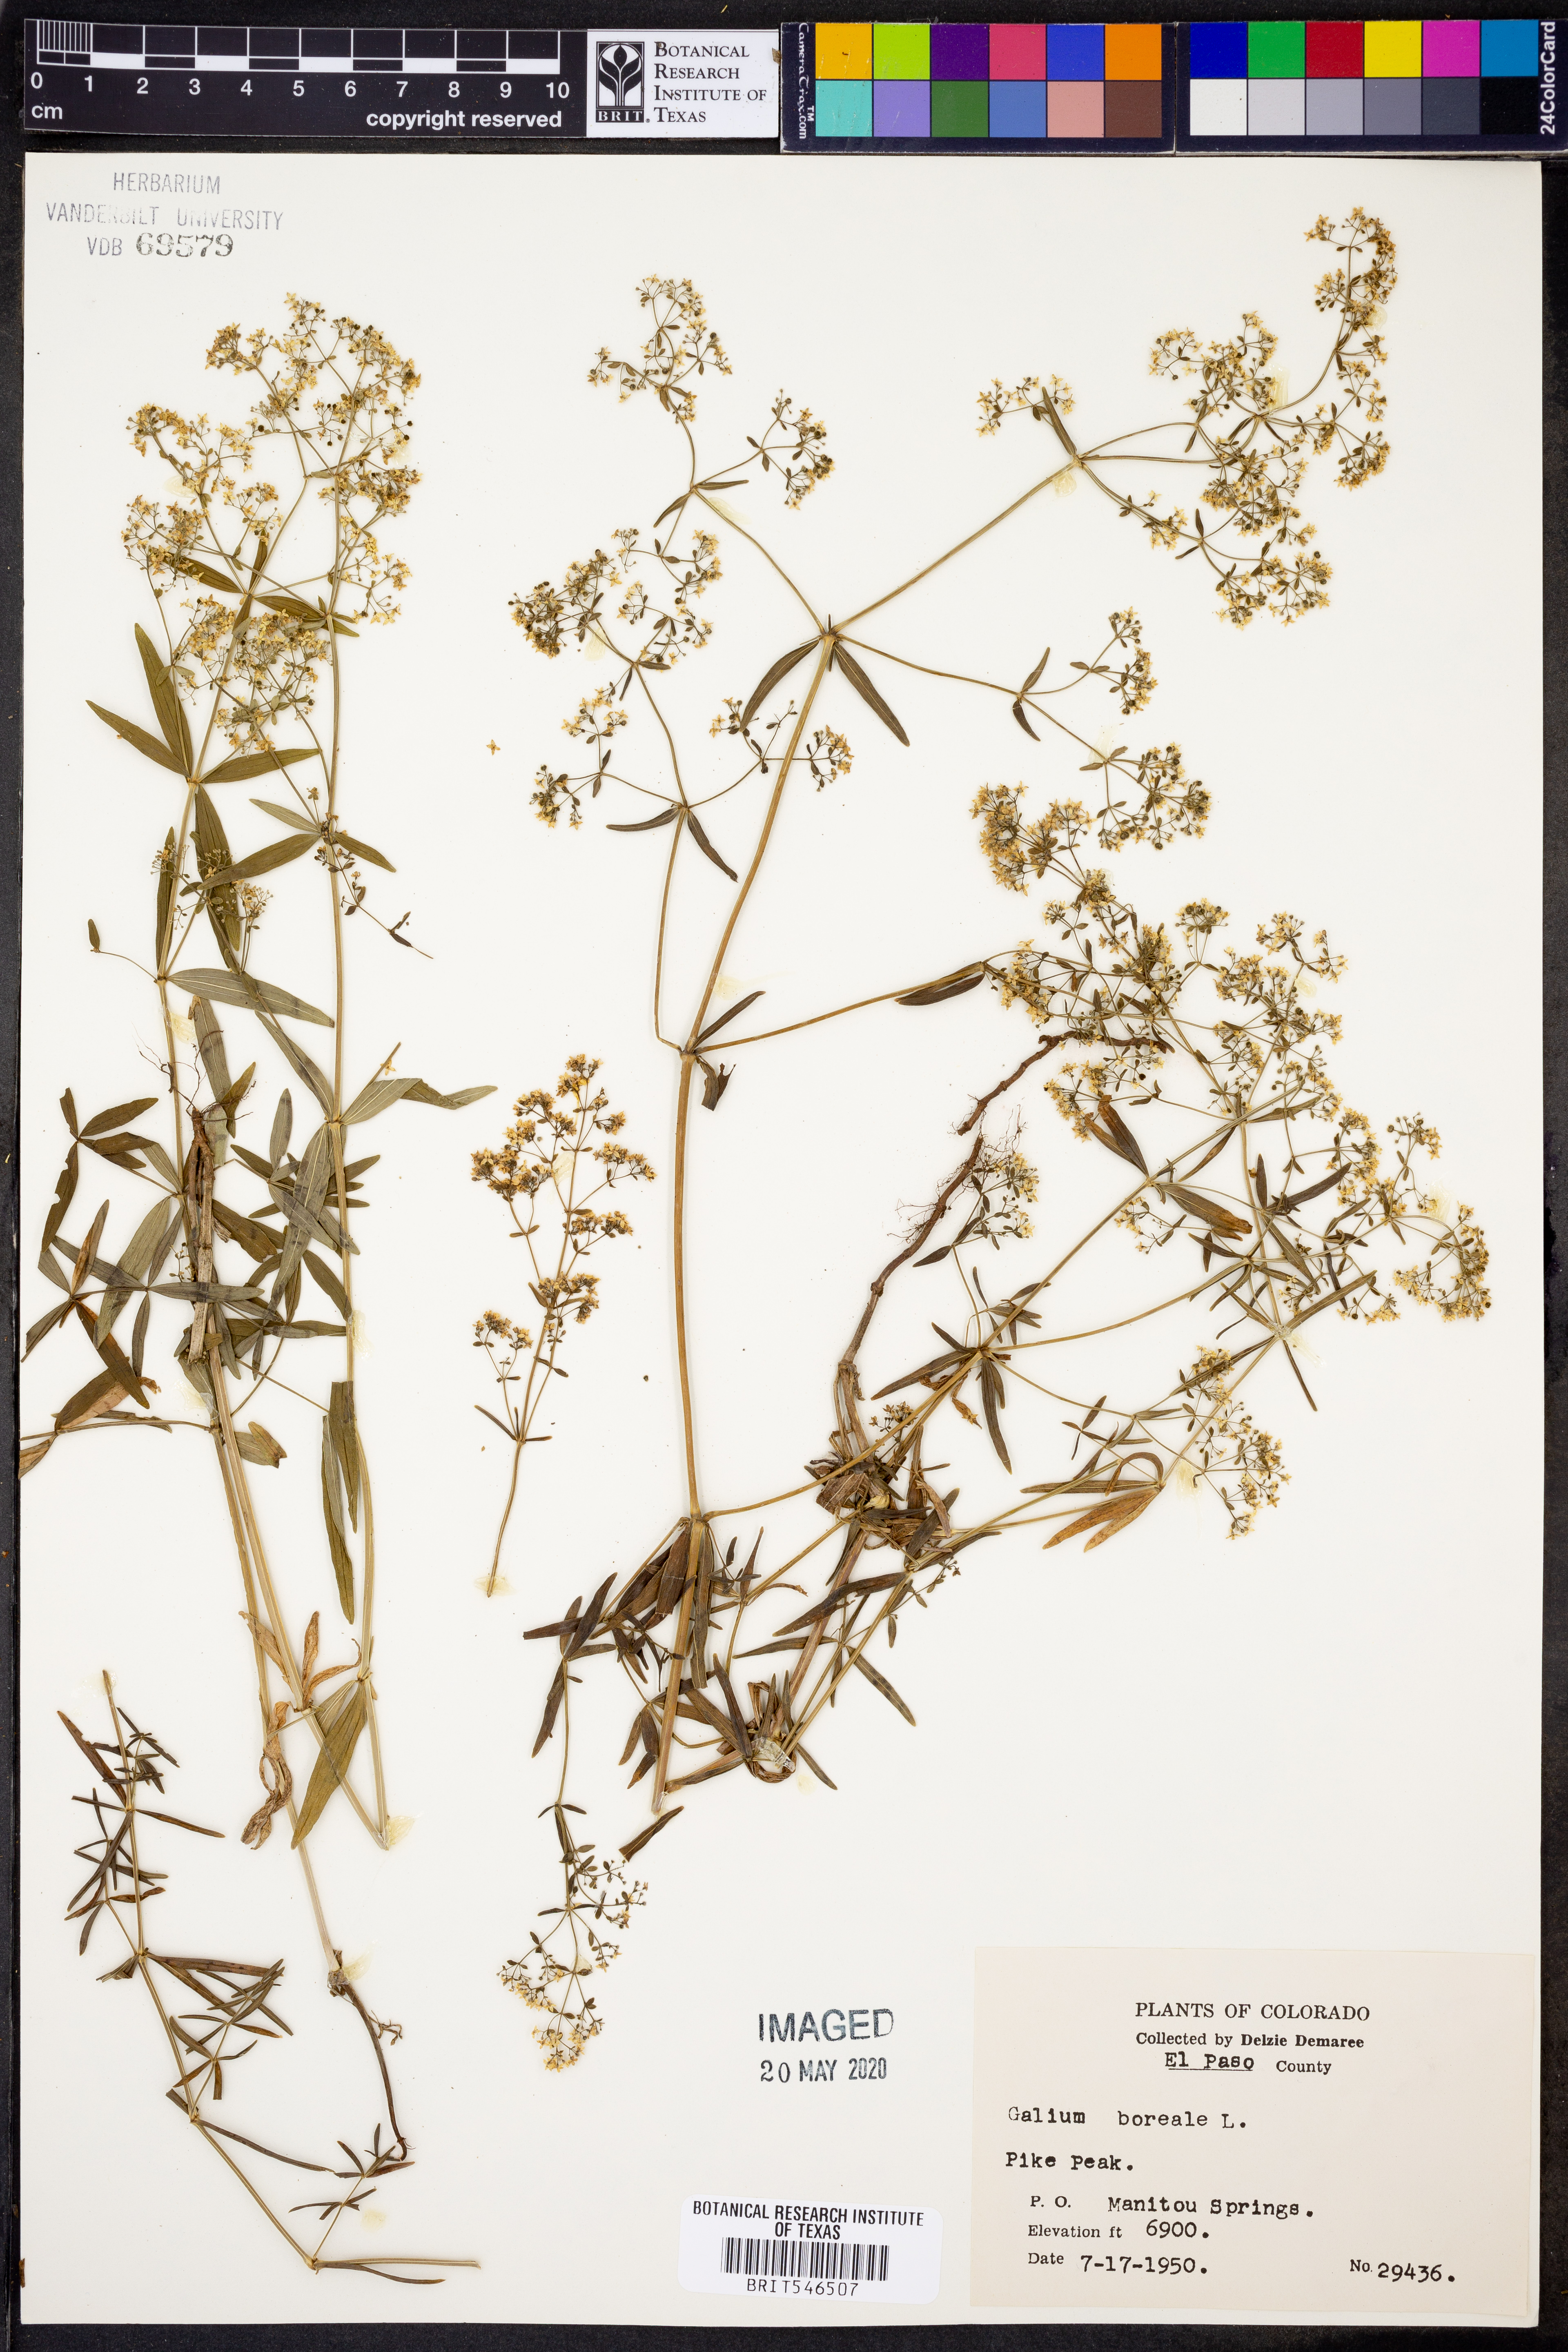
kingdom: Plantae
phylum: Tracheophyta
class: Magnoliopsida
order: Gentianales
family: Rubiaceae
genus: Galium
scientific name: Galium boreale
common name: Northern bedstraw
